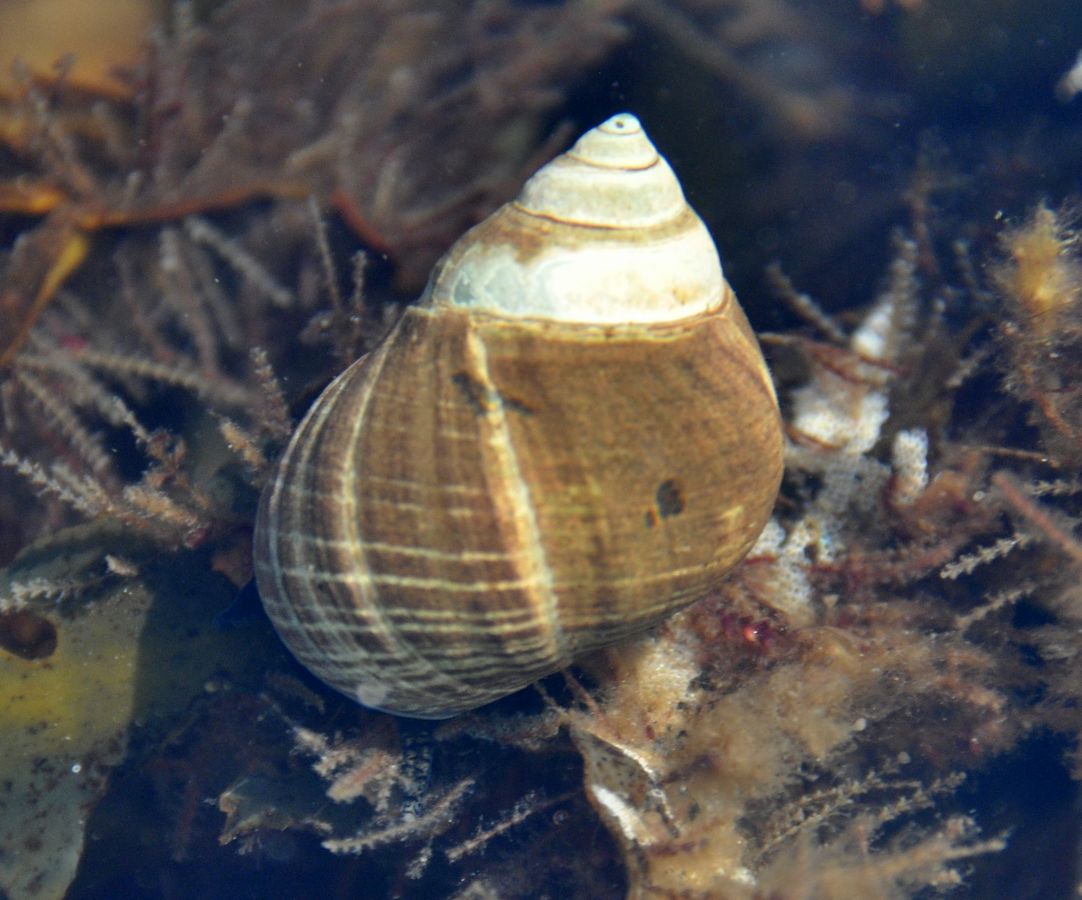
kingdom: Animalia
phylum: Mollusca
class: Gastropoda
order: Littorinimorpha
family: Littorinidae
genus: Littorina
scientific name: Littorina littorea
